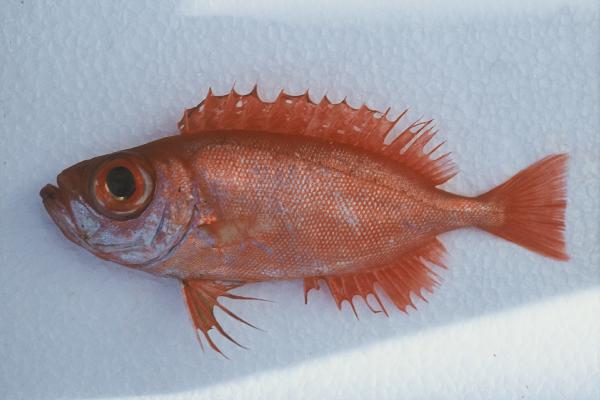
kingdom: Animalia
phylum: Chordata
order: Perciformes
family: Priacanthidae
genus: Priacanthus
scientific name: Priacanthus hamrur
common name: Moontail bullseye
